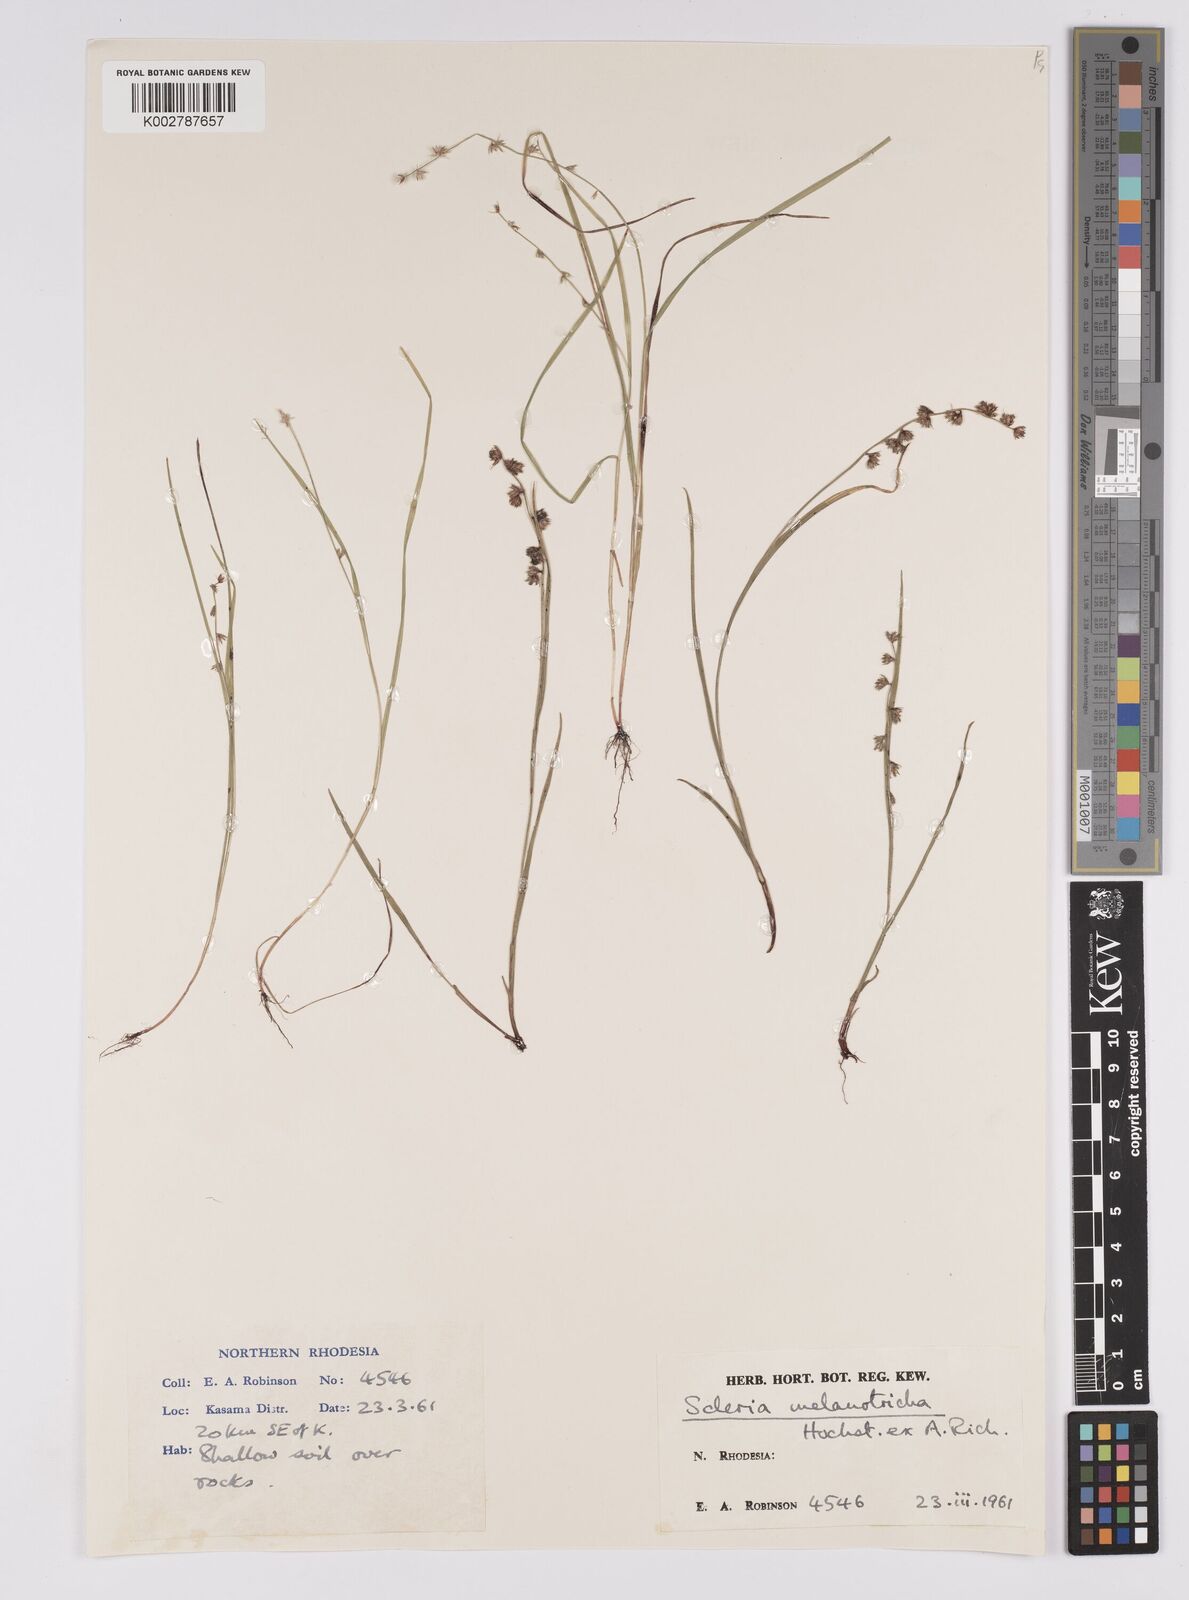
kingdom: Plantae
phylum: Tracheophyta
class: Liliopsida
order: Poales
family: Cyperaceae
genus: Scleria
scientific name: Scleria melanotricha
